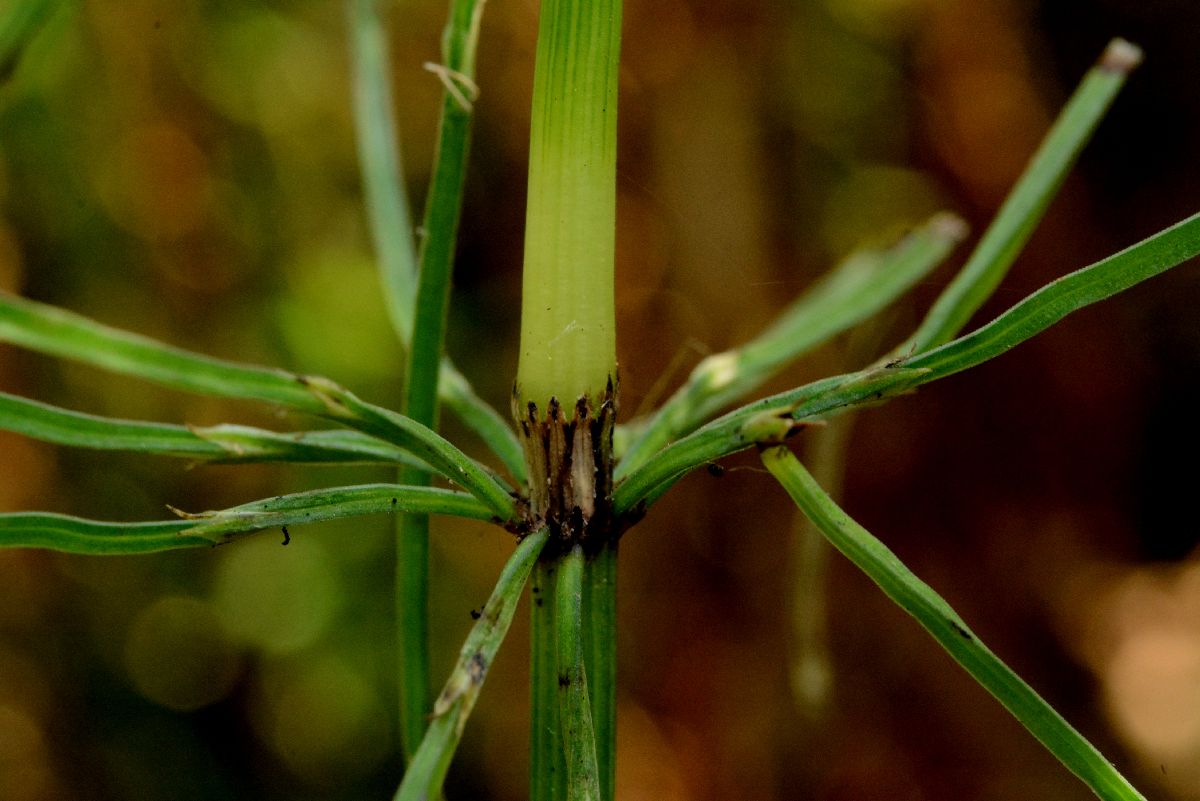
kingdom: Plantae
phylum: Tracheophyta
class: Polypodiopsida
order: Equisetales
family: Equisetaceae
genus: Equisetum
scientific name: Equisetum arvense
